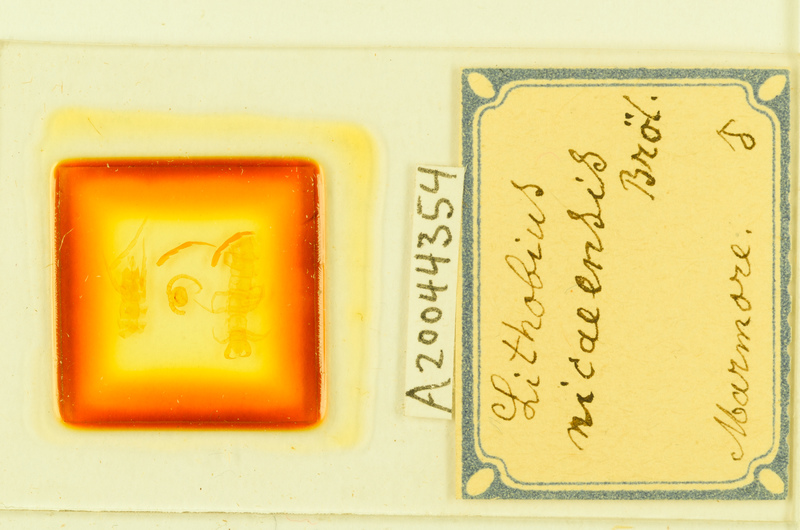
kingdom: Animalia
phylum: Arthropoda
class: Chilopoda
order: Lithobiomorpha
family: Lithobiidae
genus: Lithobius
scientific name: Lithobius tylopus
